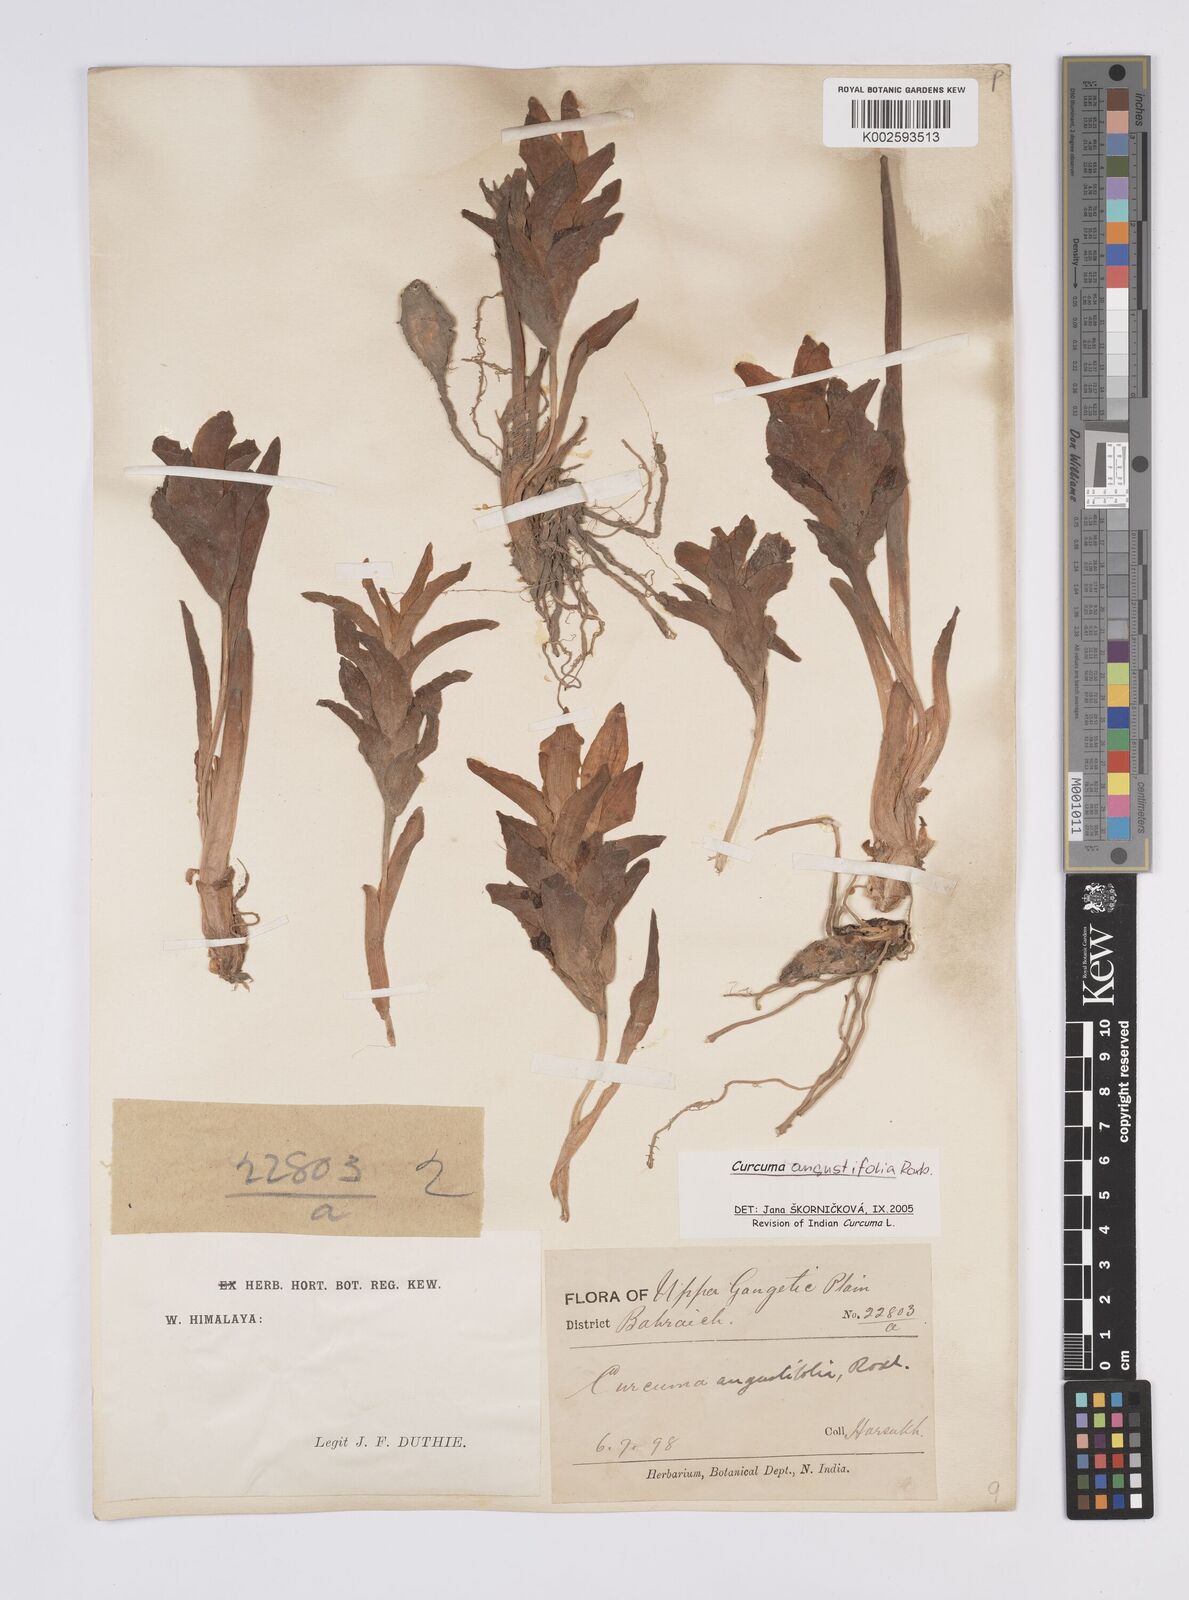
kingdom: Plantae
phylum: Tracheophyta
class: Liliopsida
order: Zingiberales
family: Zingiberaceae
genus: Curcuma
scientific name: Curcuma angustifolia
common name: East indian arrowroot
